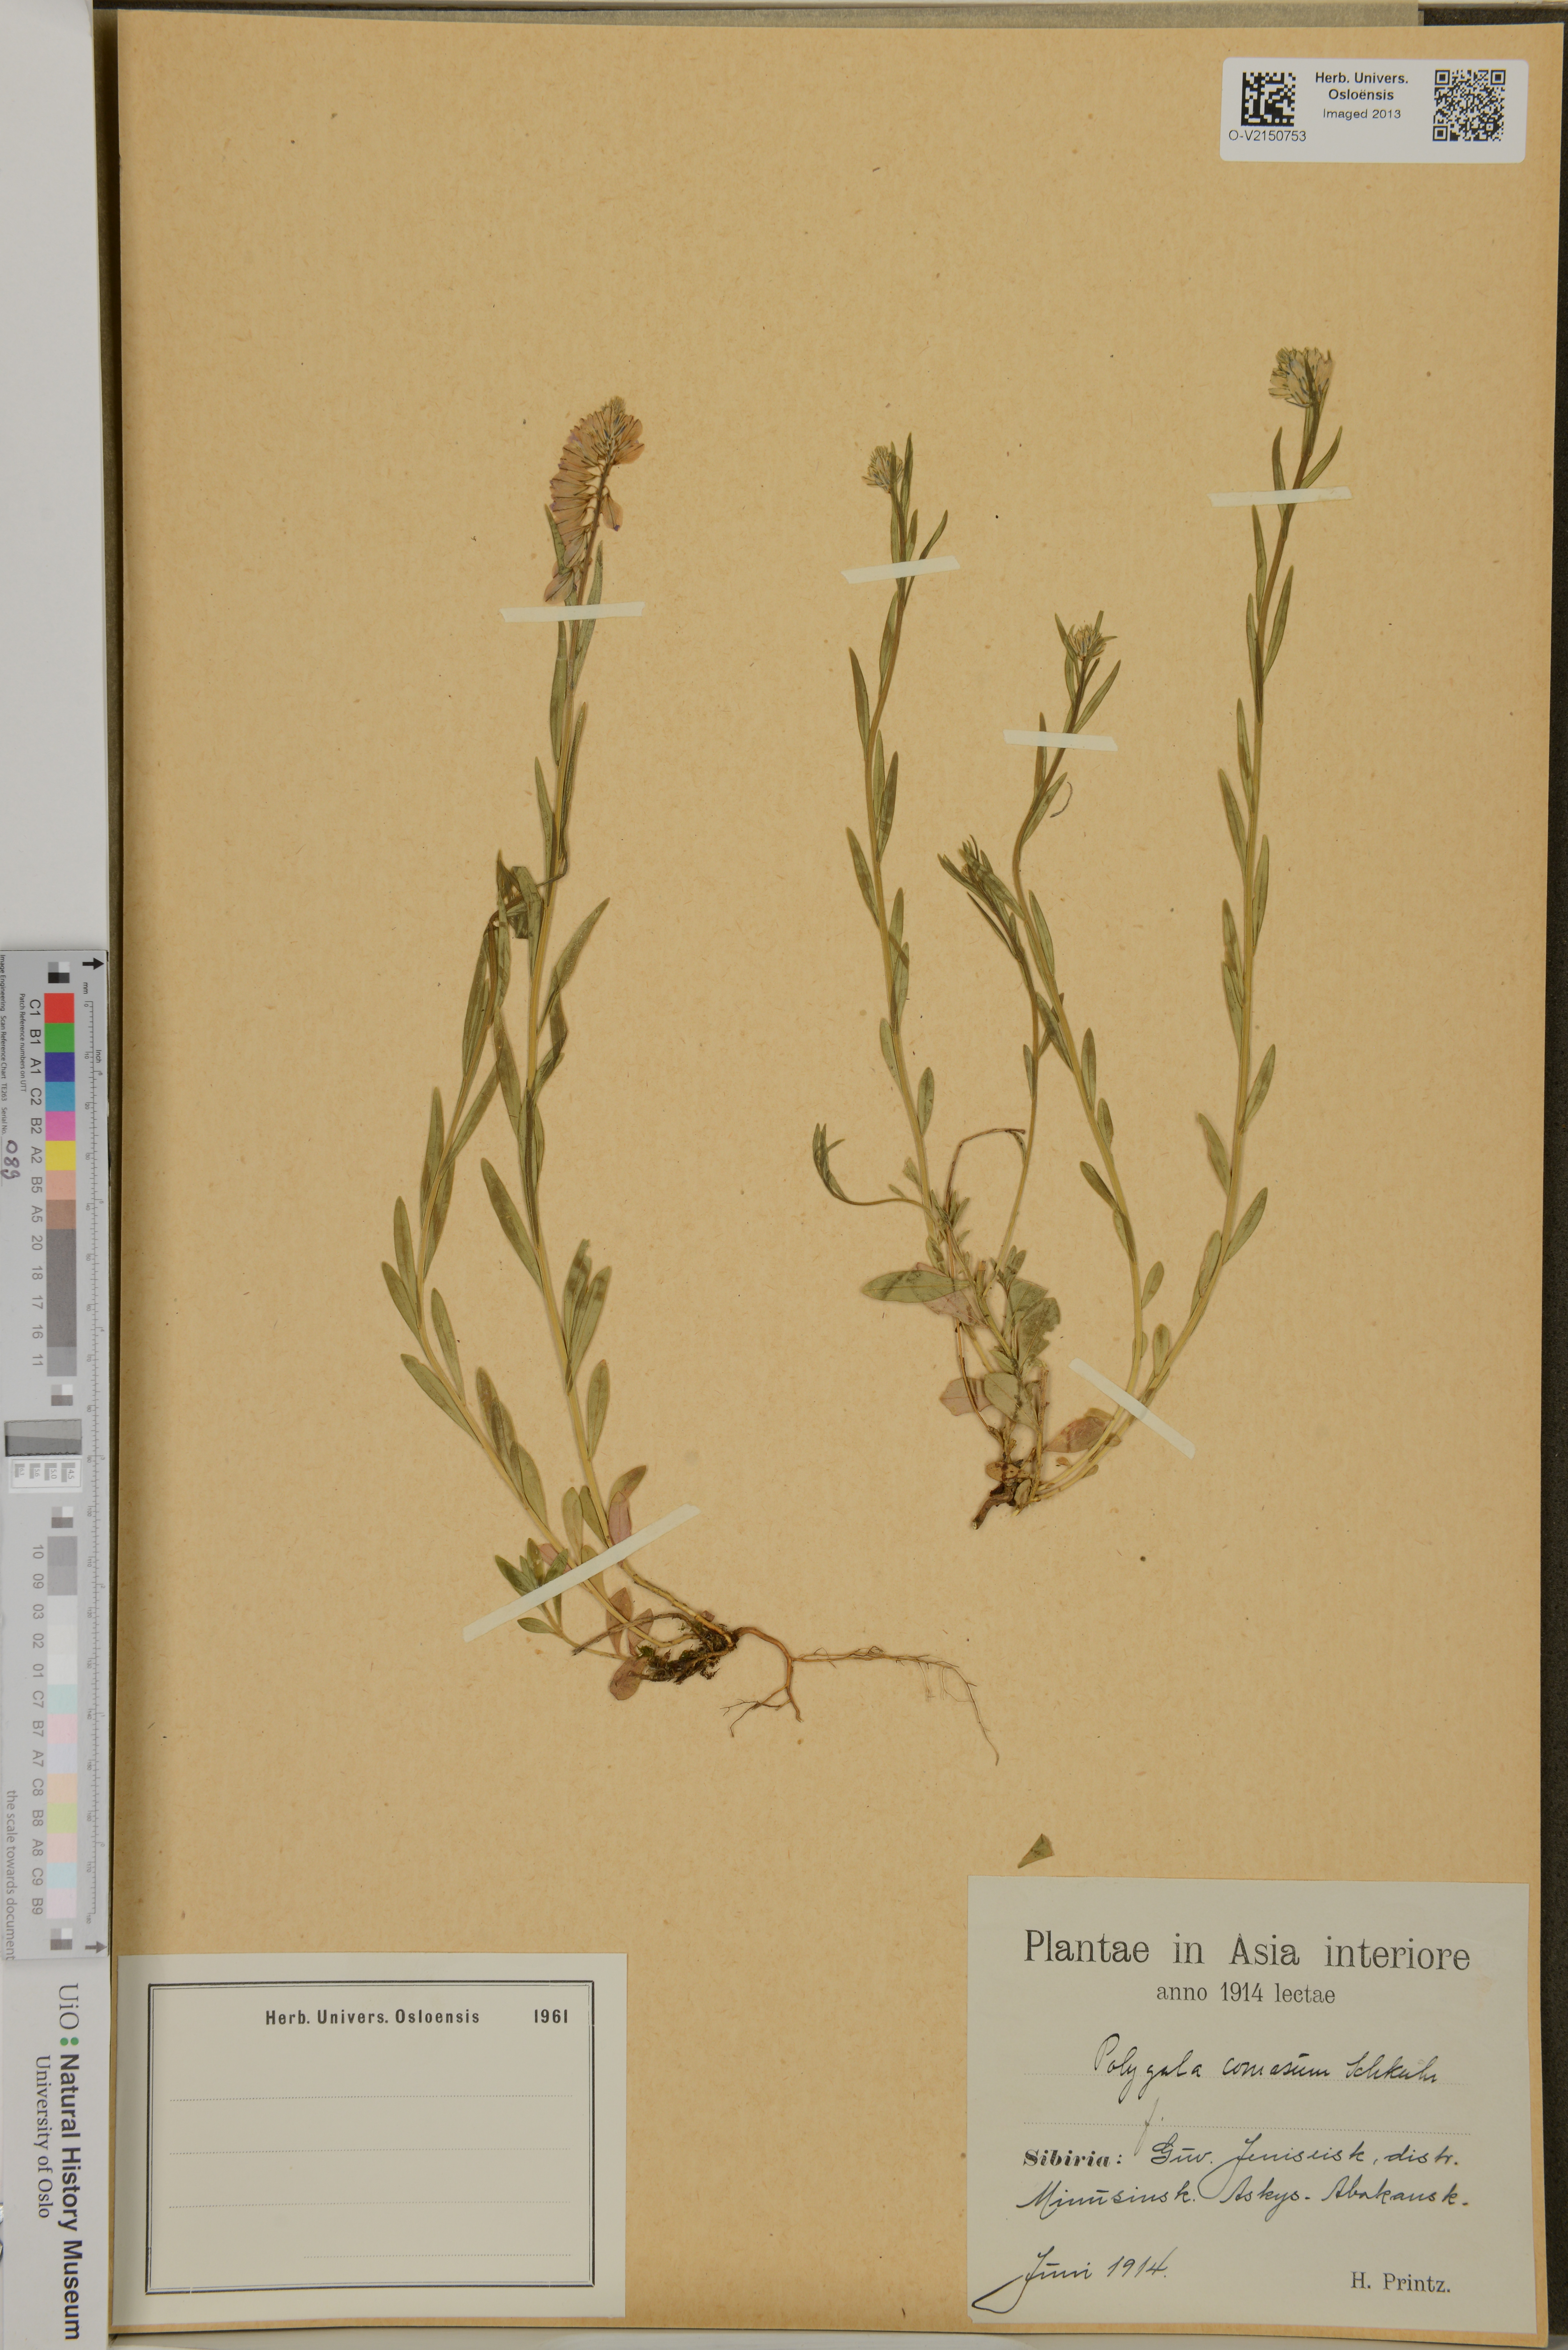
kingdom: Plantae
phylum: Tracheophyta
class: Magnoliopsida
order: Fabales
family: Polygalaceae
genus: Polygala
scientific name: Polygala comosa
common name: Tufted milkwort
